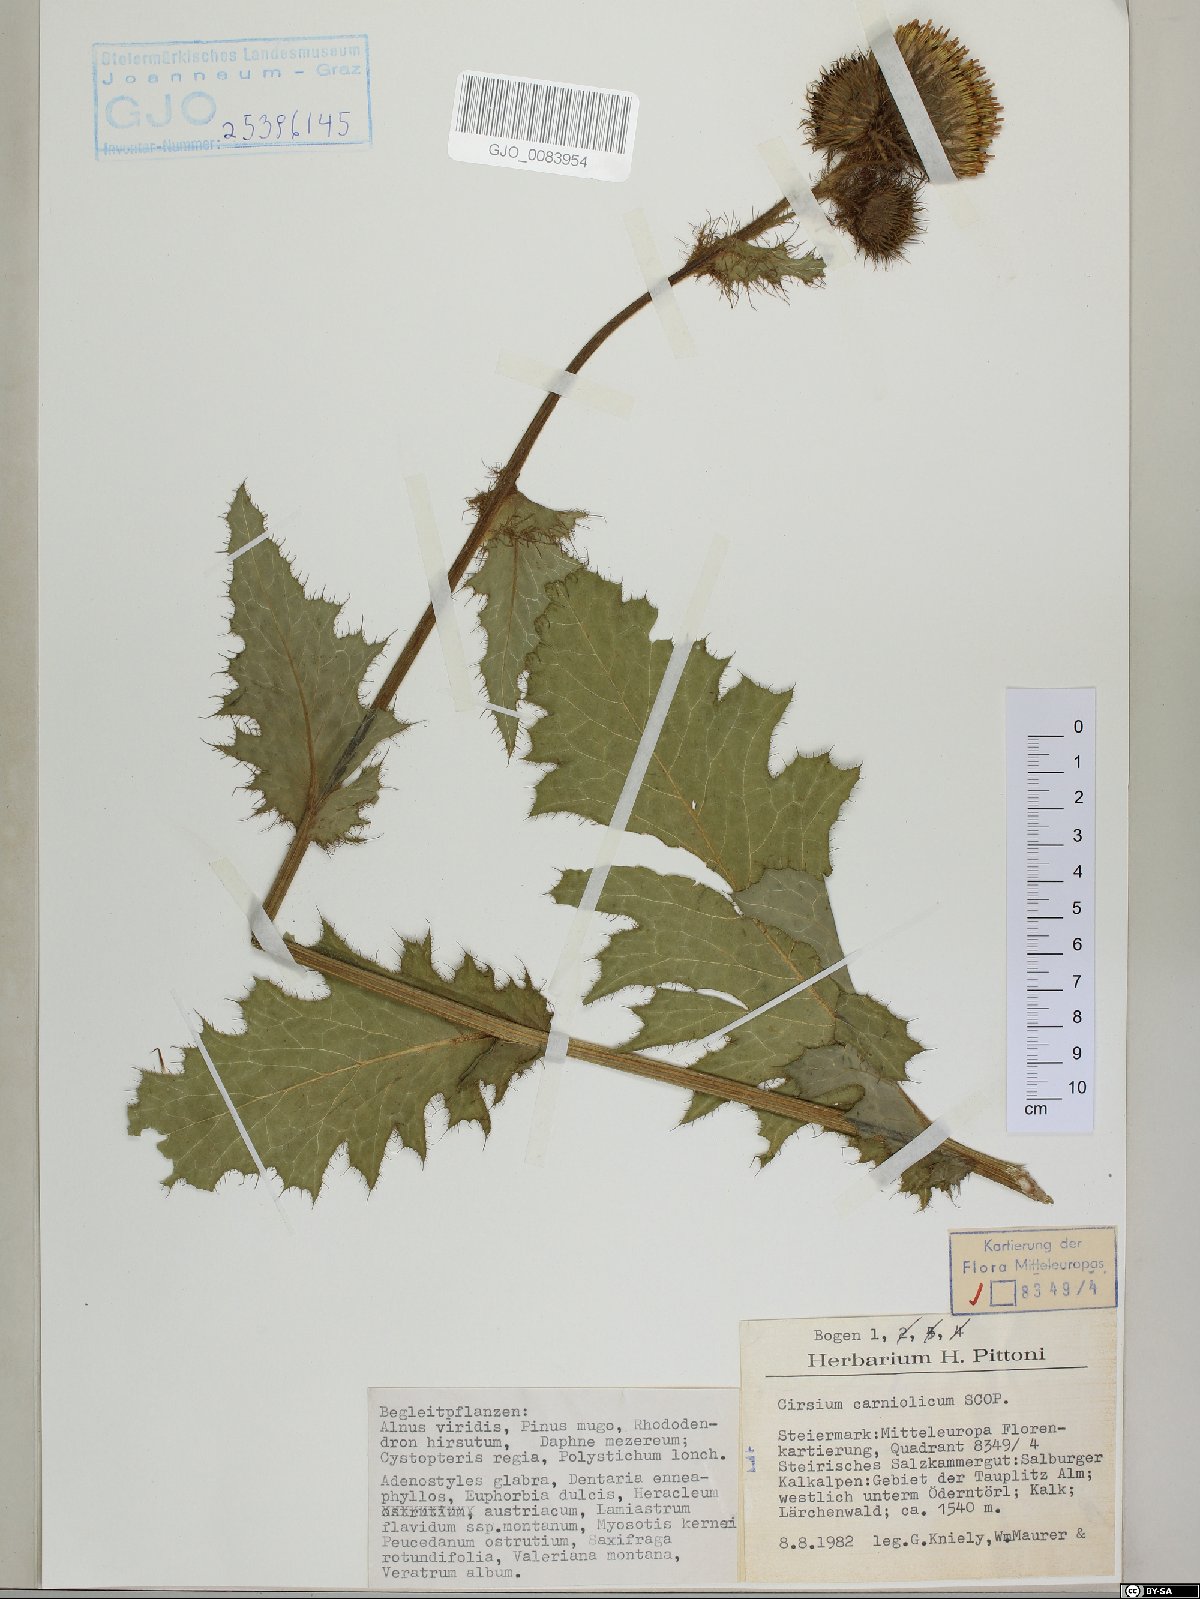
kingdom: Plantae
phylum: Tracheophyta
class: Magnoliopsida
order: Asterales
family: Asteraceae
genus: Cirsium
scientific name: Cirsium carniolicum
